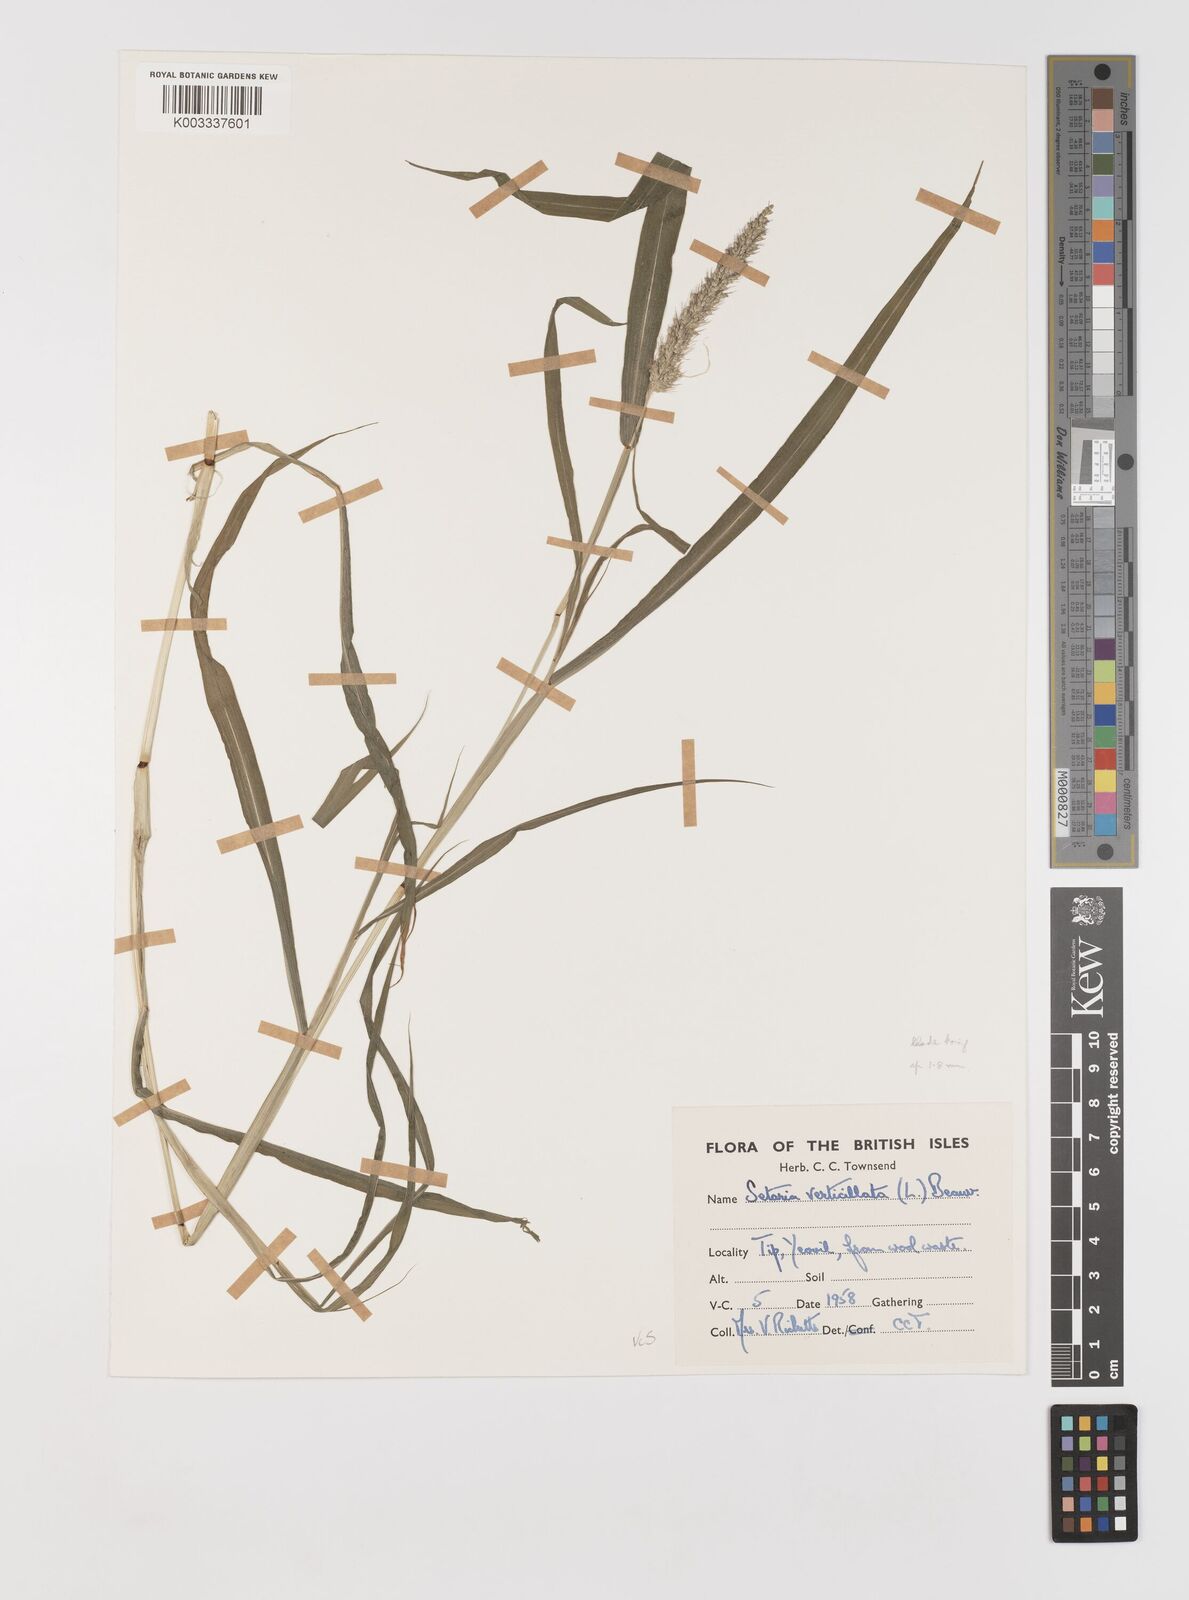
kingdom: Plantae
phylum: Tracheophyta
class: Liliopsida
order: Poales
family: Poaceae
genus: Setaria
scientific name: Setaria verticillata
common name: Hooked bristlegrass
